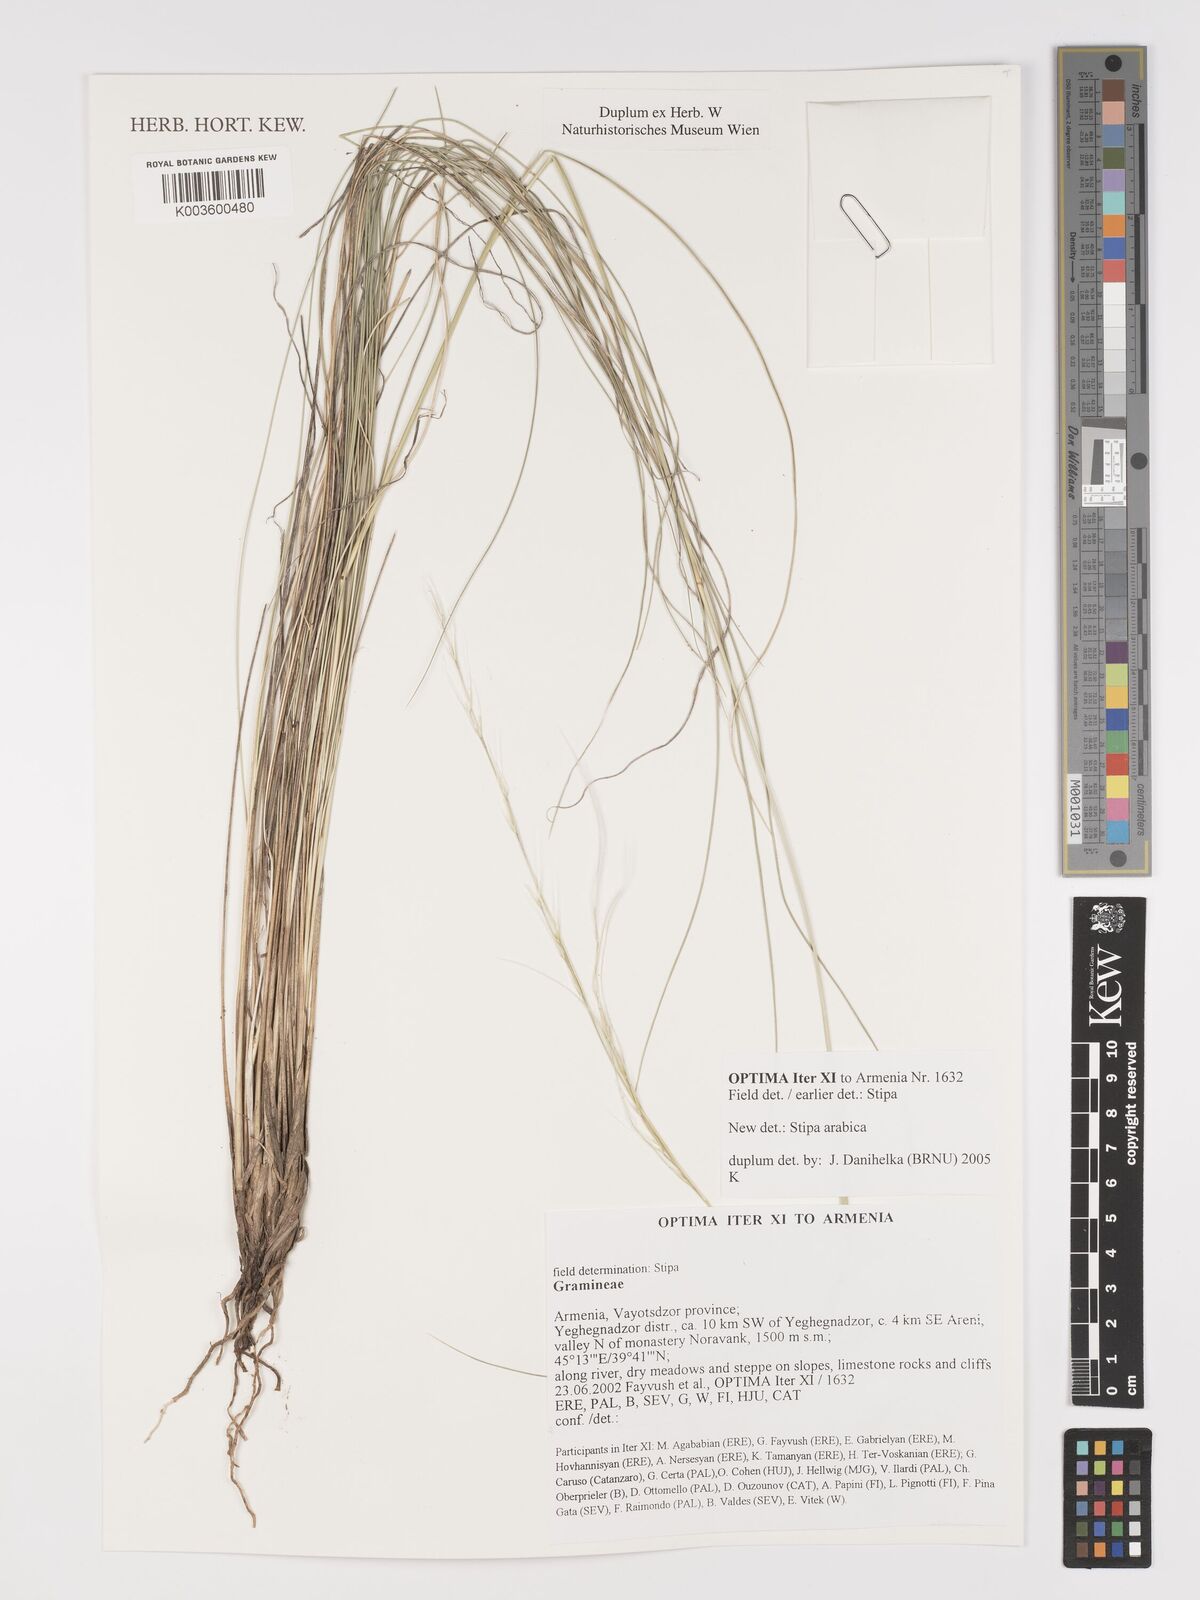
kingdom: Plantae
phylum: Tracheophyta
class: Liliopsida
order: Poales
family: Poaceae
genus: Stipa
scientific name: Stipa arabica
